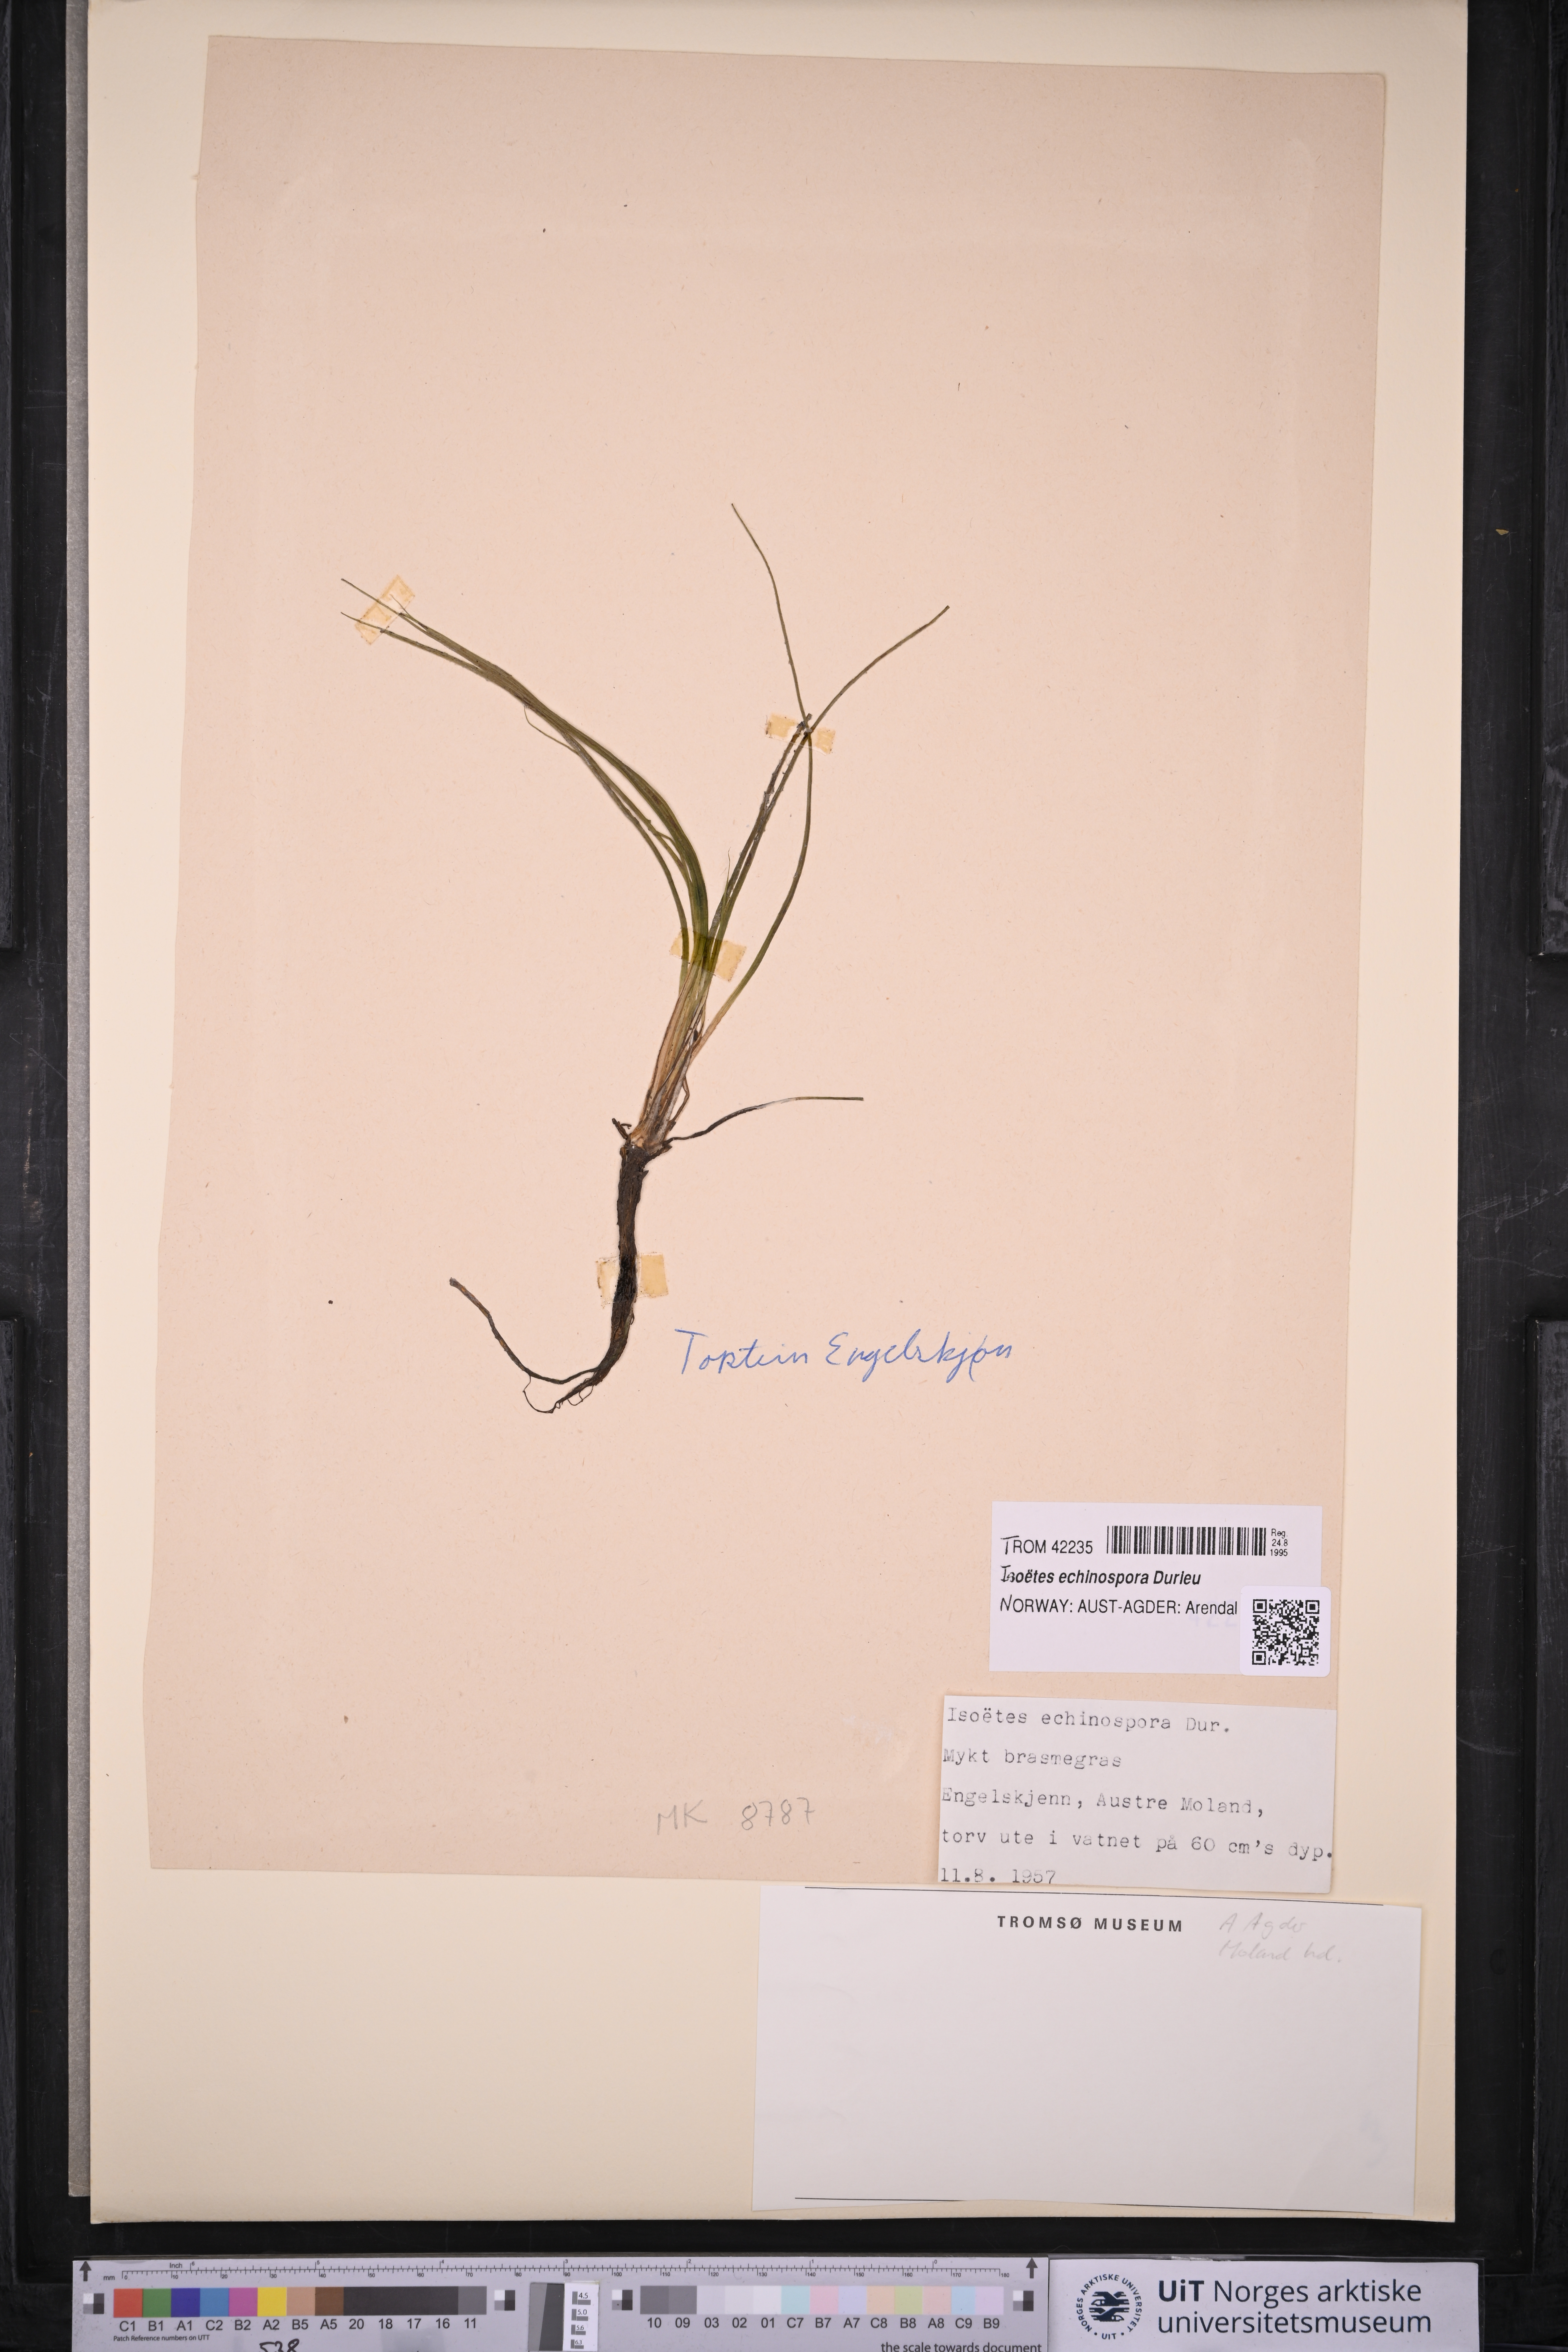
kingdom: Plantae
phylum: Tracheophyta
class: Lycopodiopsida
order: Isoetales
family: Isoetaceae
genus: Isoetes
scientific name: Isoetes echinospora
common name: Spring quillwort
